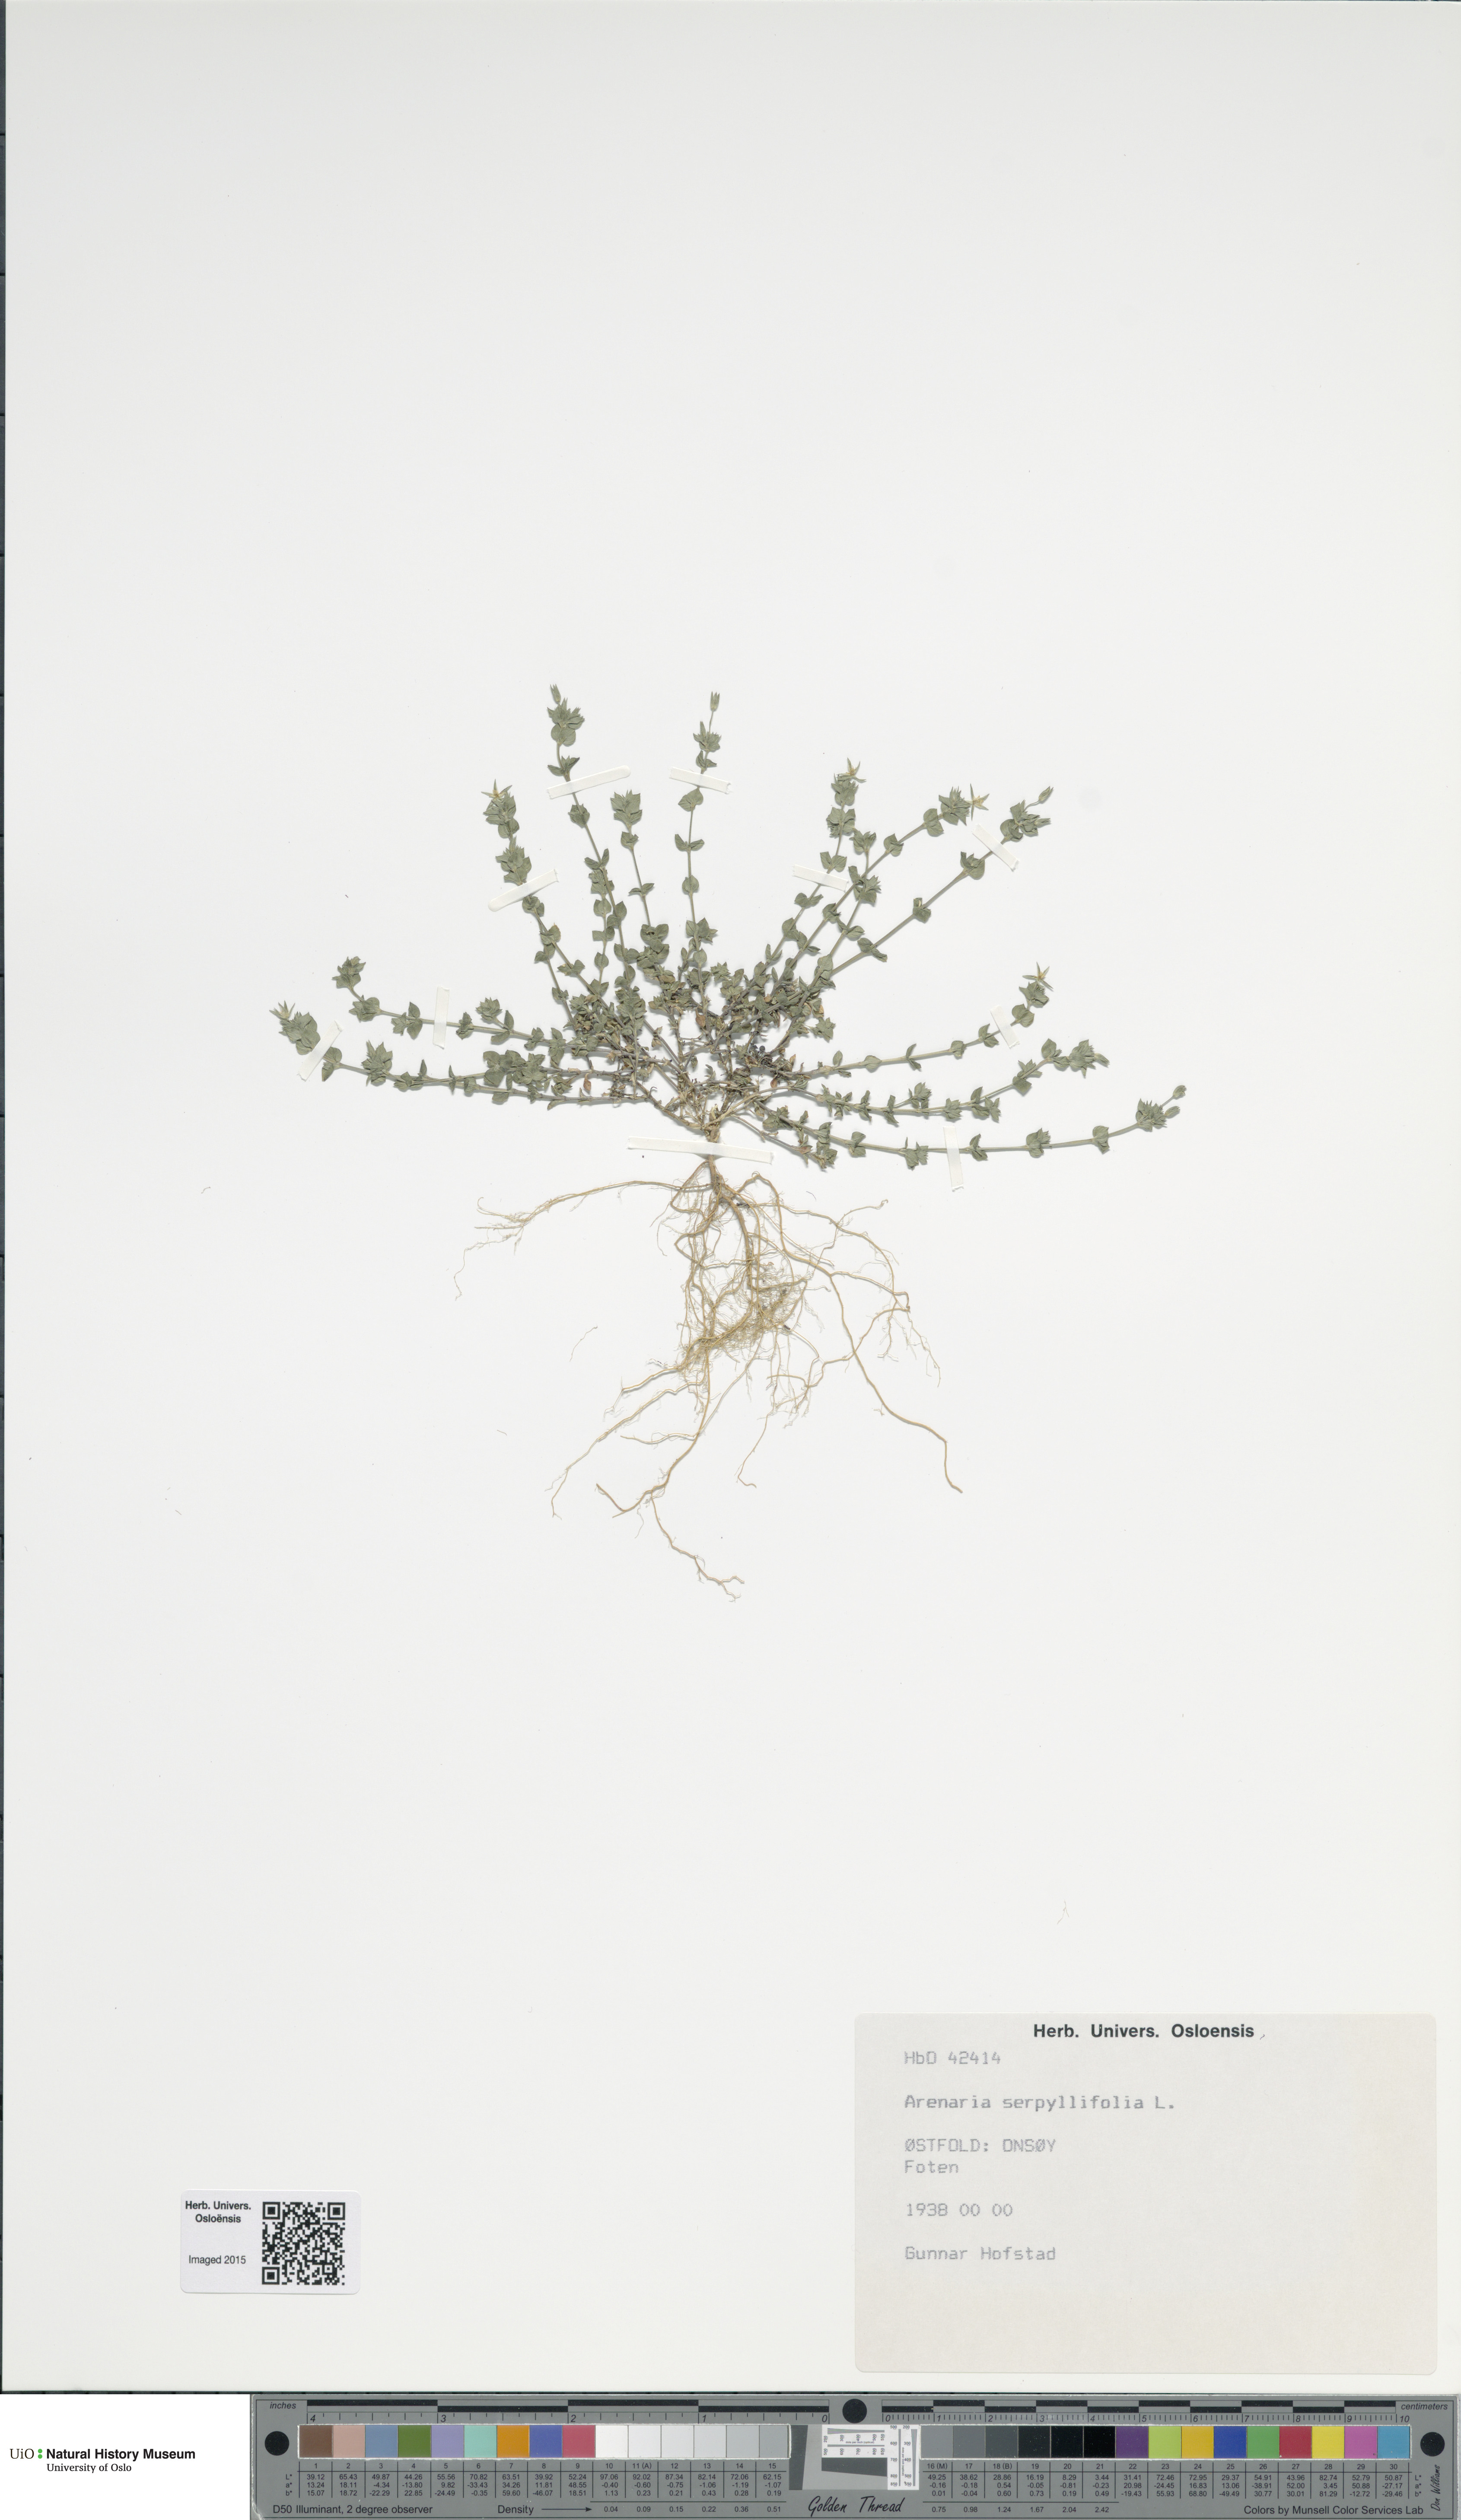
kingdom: Plantae
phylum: Tracheophyta
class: Magnoliopsida
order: Caryophyllales
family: Caryophyllaceae
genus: Arenaria
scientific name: Arenaria serpyllifolia
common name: Thyme-leaved sandwort
